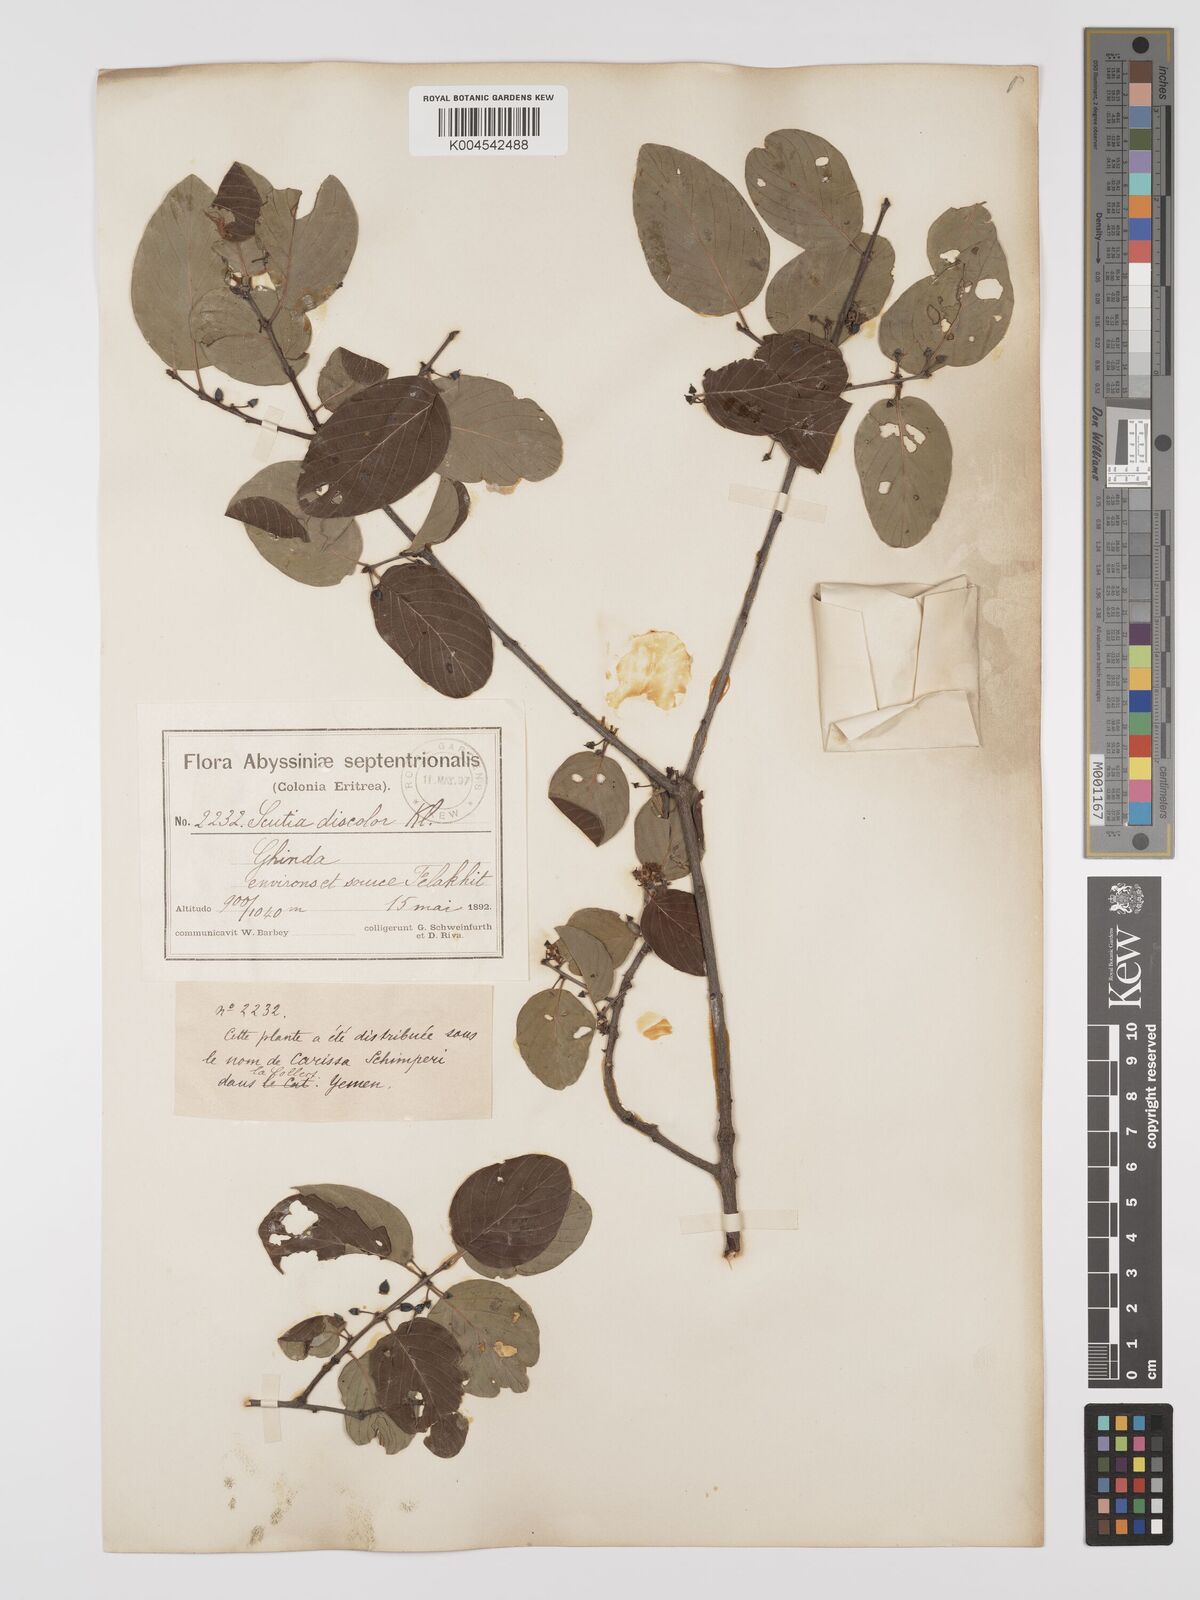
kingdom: Plantae
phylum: Tracheophyta
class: Magnoliopsida
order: Rosales
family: Rhamnaceae
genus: Phyllogeiton
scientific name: Phyllogeiton discolor
